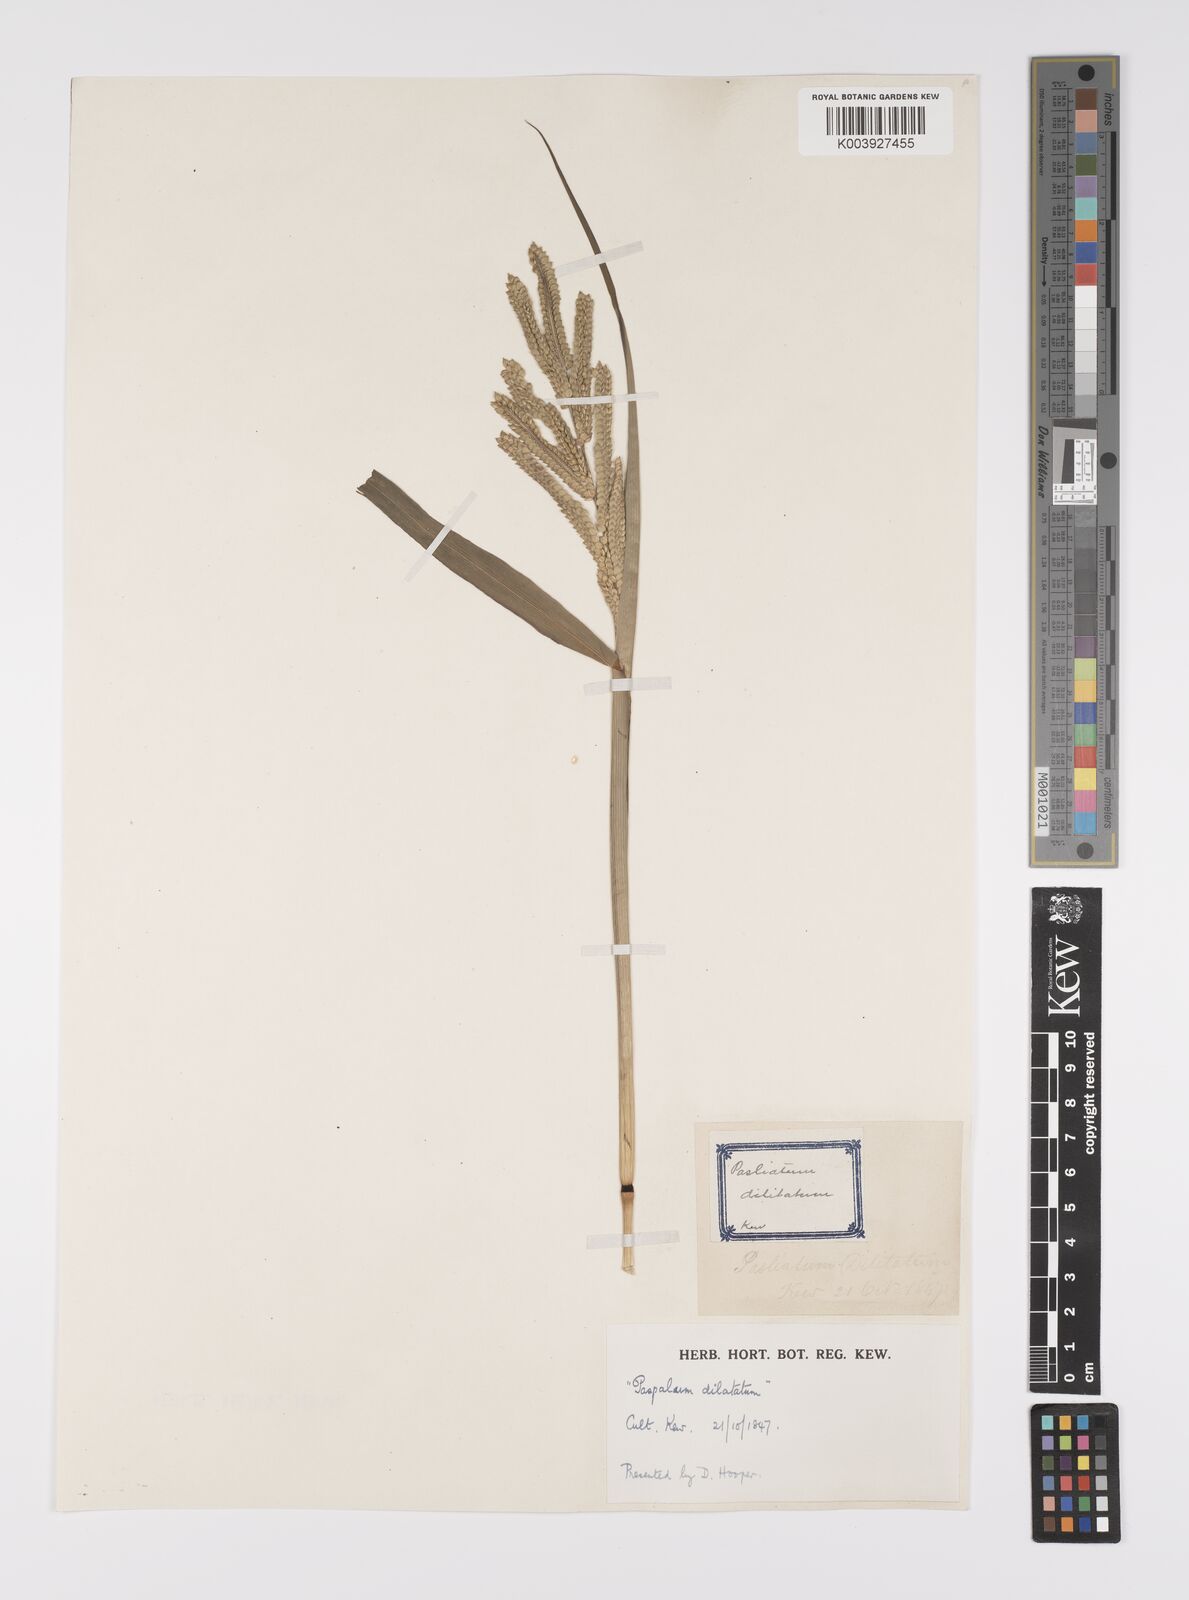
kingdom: Plantae
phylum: Tracheophyta
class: Liliopsida
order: Poales
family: Poaceae
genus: Paspalum
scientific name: Paspalum dilatatum
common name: Dallisgrass
